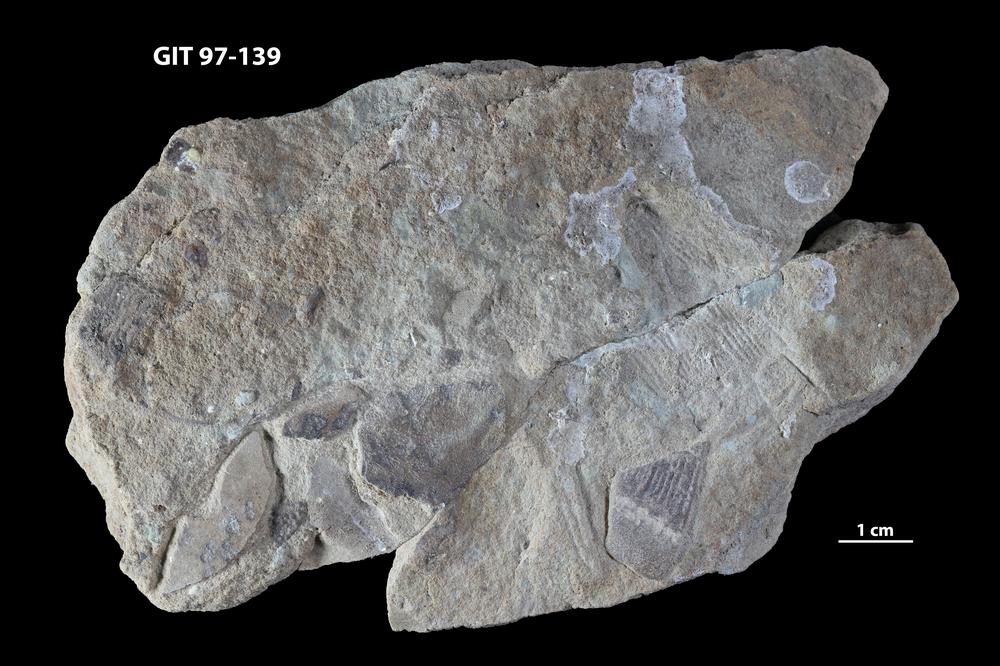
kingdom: Animalia
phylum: Chordata
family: Holonematidae
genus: Holonema
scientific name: Holonema
